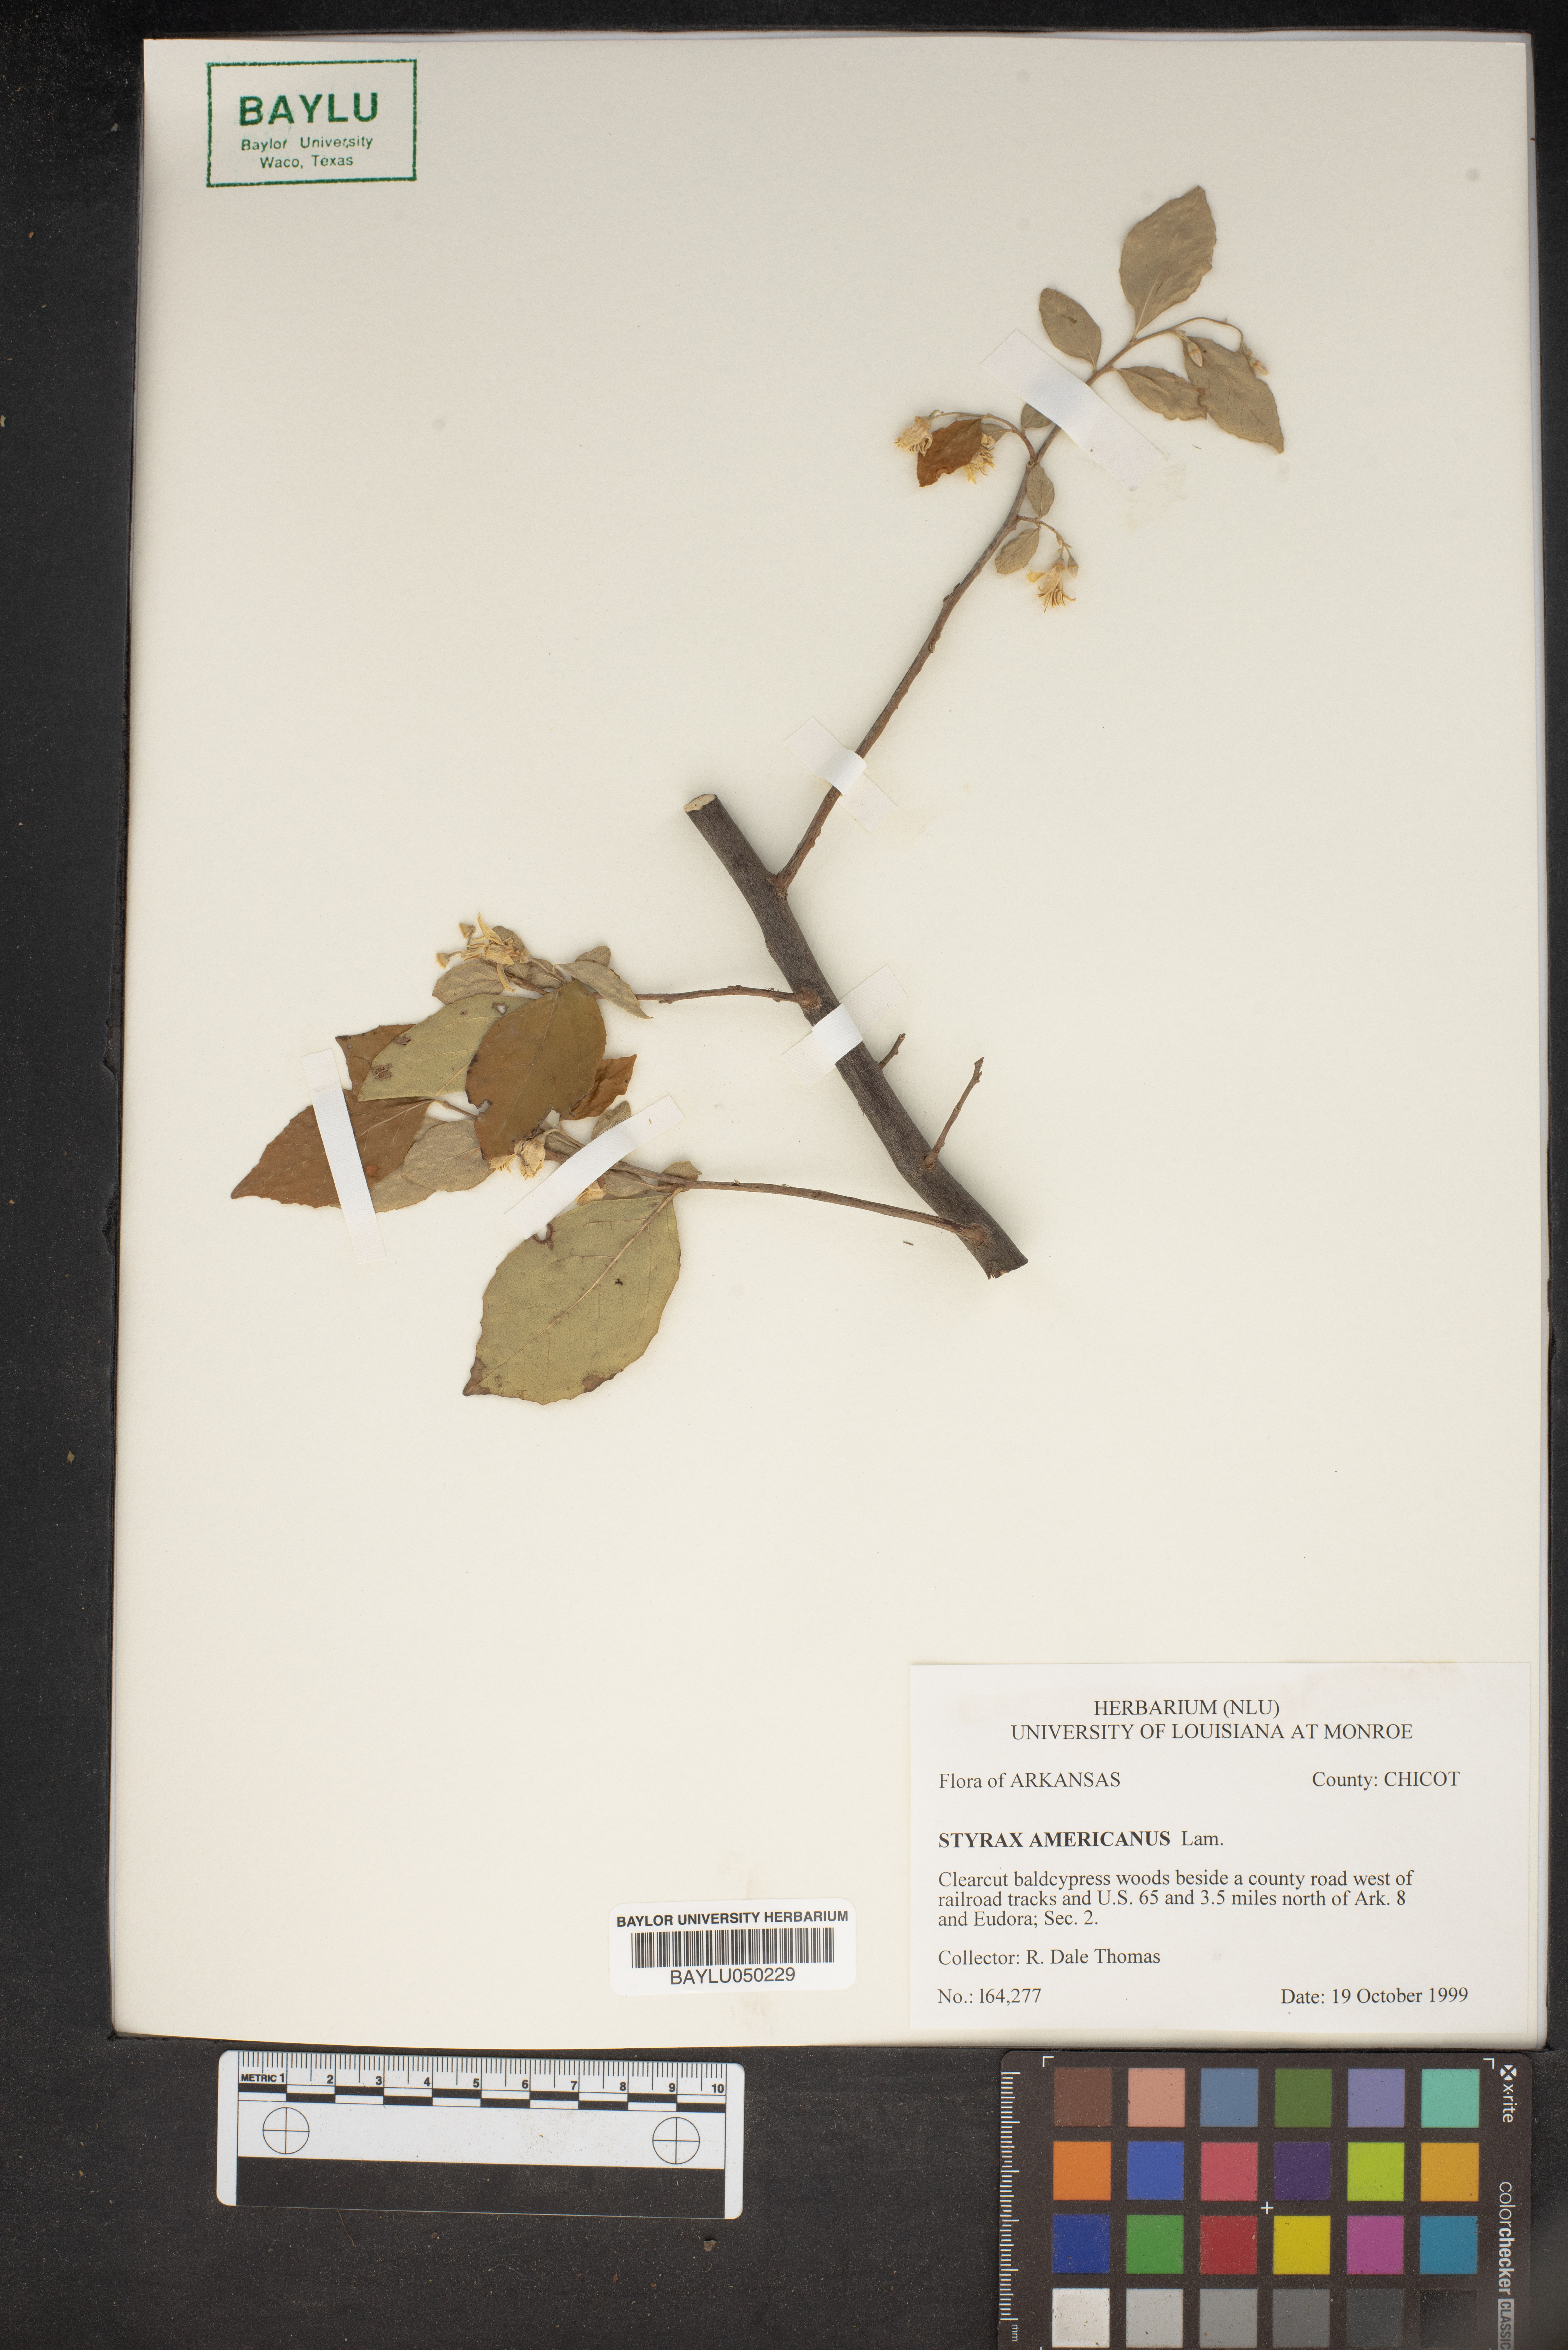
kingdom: Plantae
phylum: Tracheophyta
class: Magnoliopsida
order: Ericales
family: Styracaceae
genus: Styrax
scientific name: Styrax americanus
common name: American snowbell
